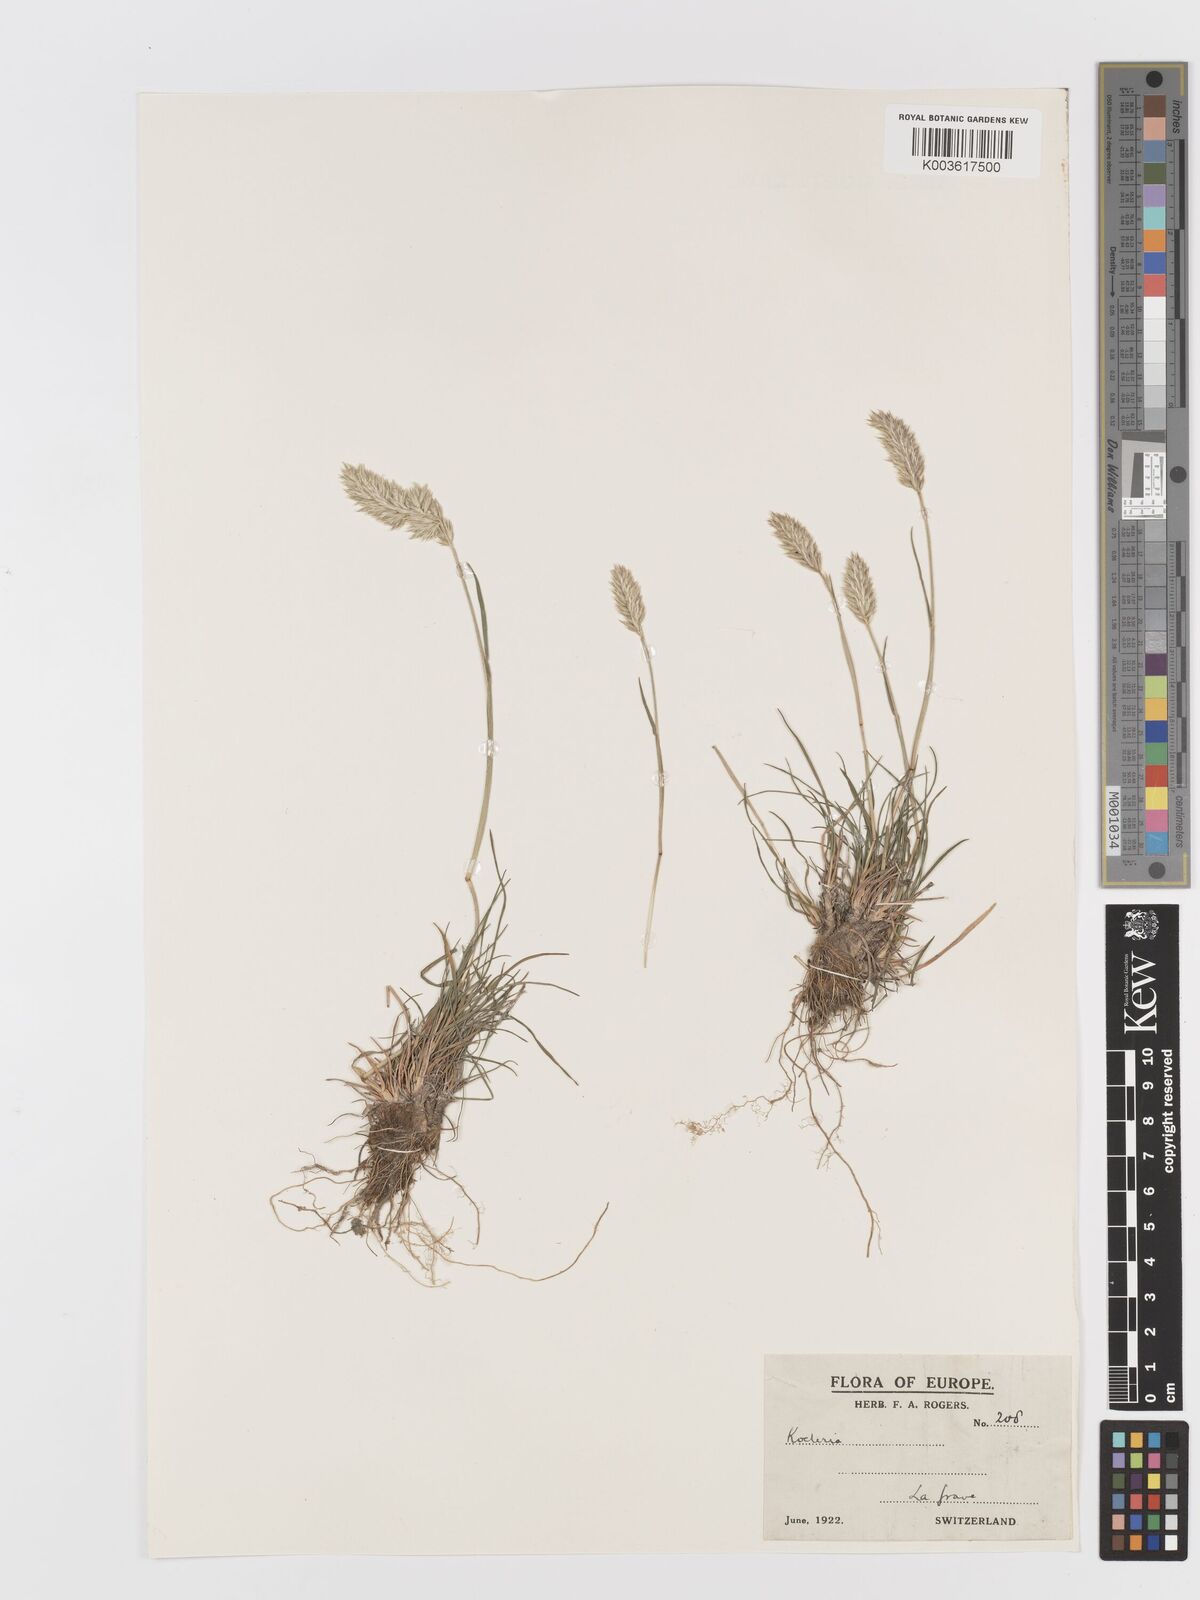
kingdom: Plantae
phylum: Tracheophyta
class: Liliopsida
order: Poales
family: Poaceae
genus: Koeleria
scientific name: Koeleria
